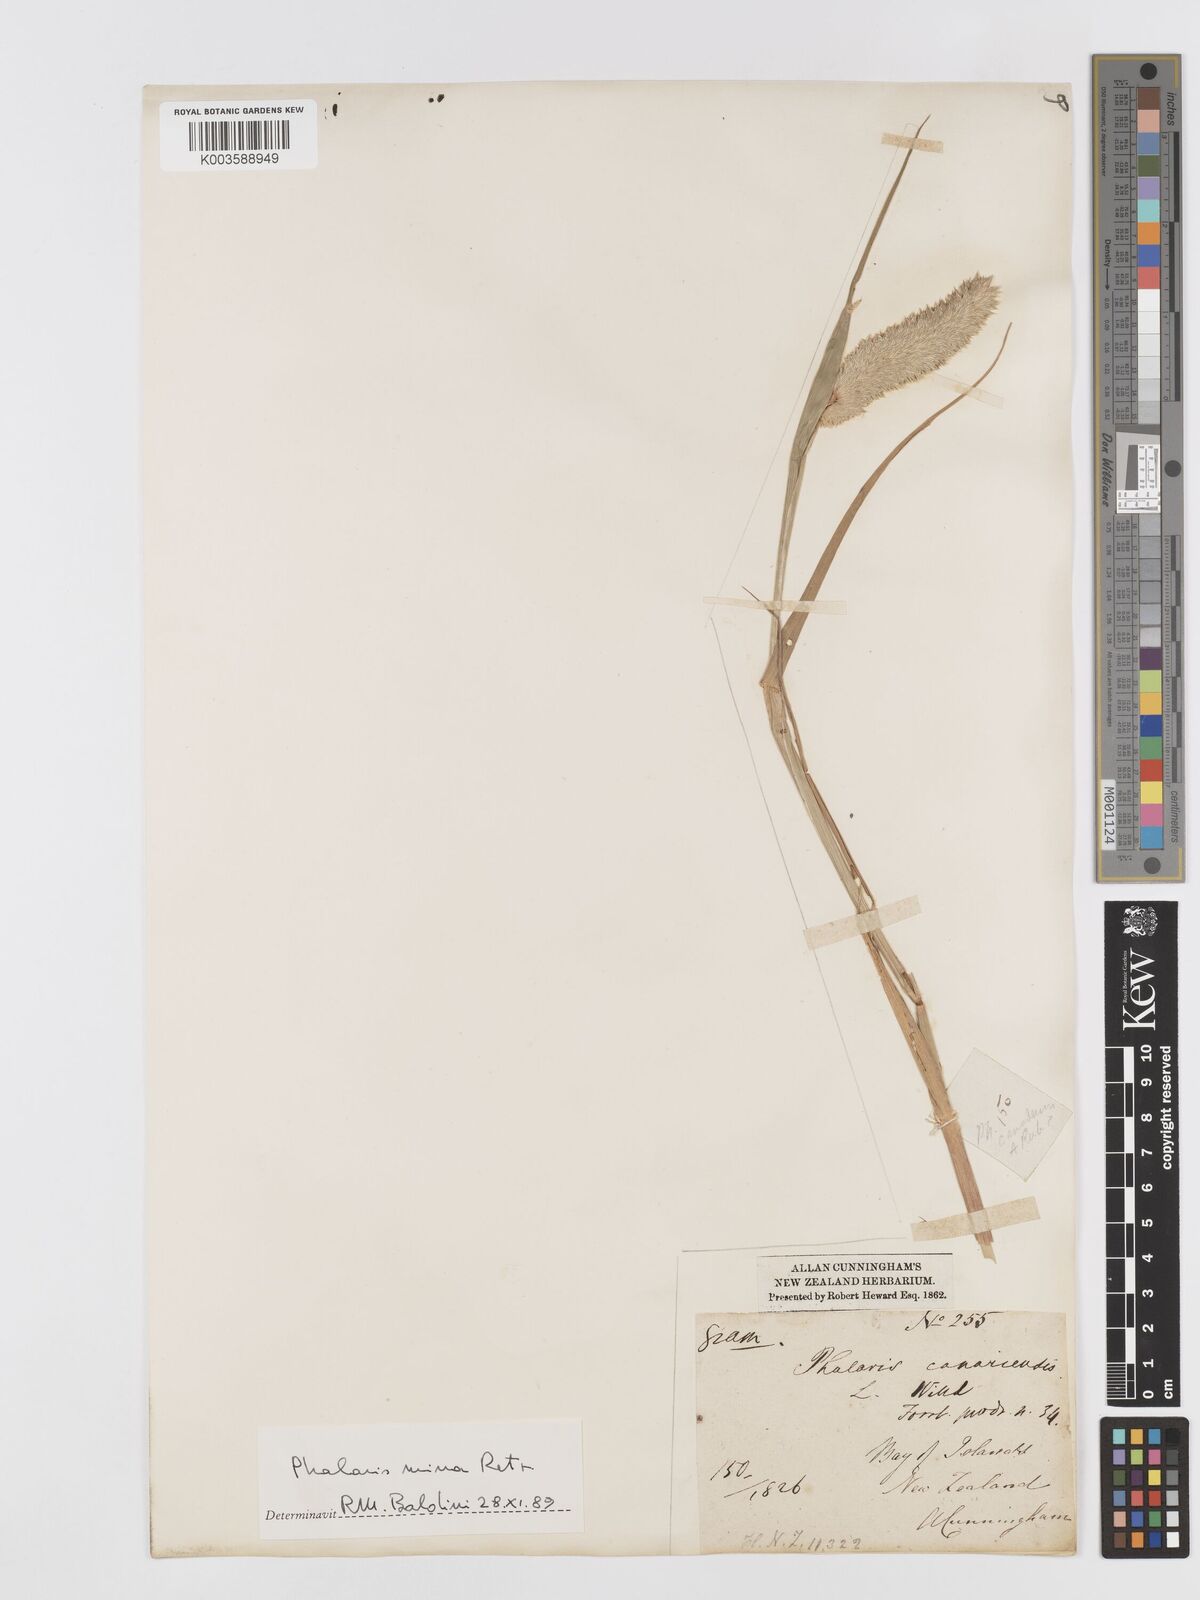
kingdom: Plantae
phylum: Tracheophyta
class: Liliopsida
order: Poales
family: Poaceae
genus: Phalaris
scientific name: Phalaris minor
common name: Littleseed canarygrass
